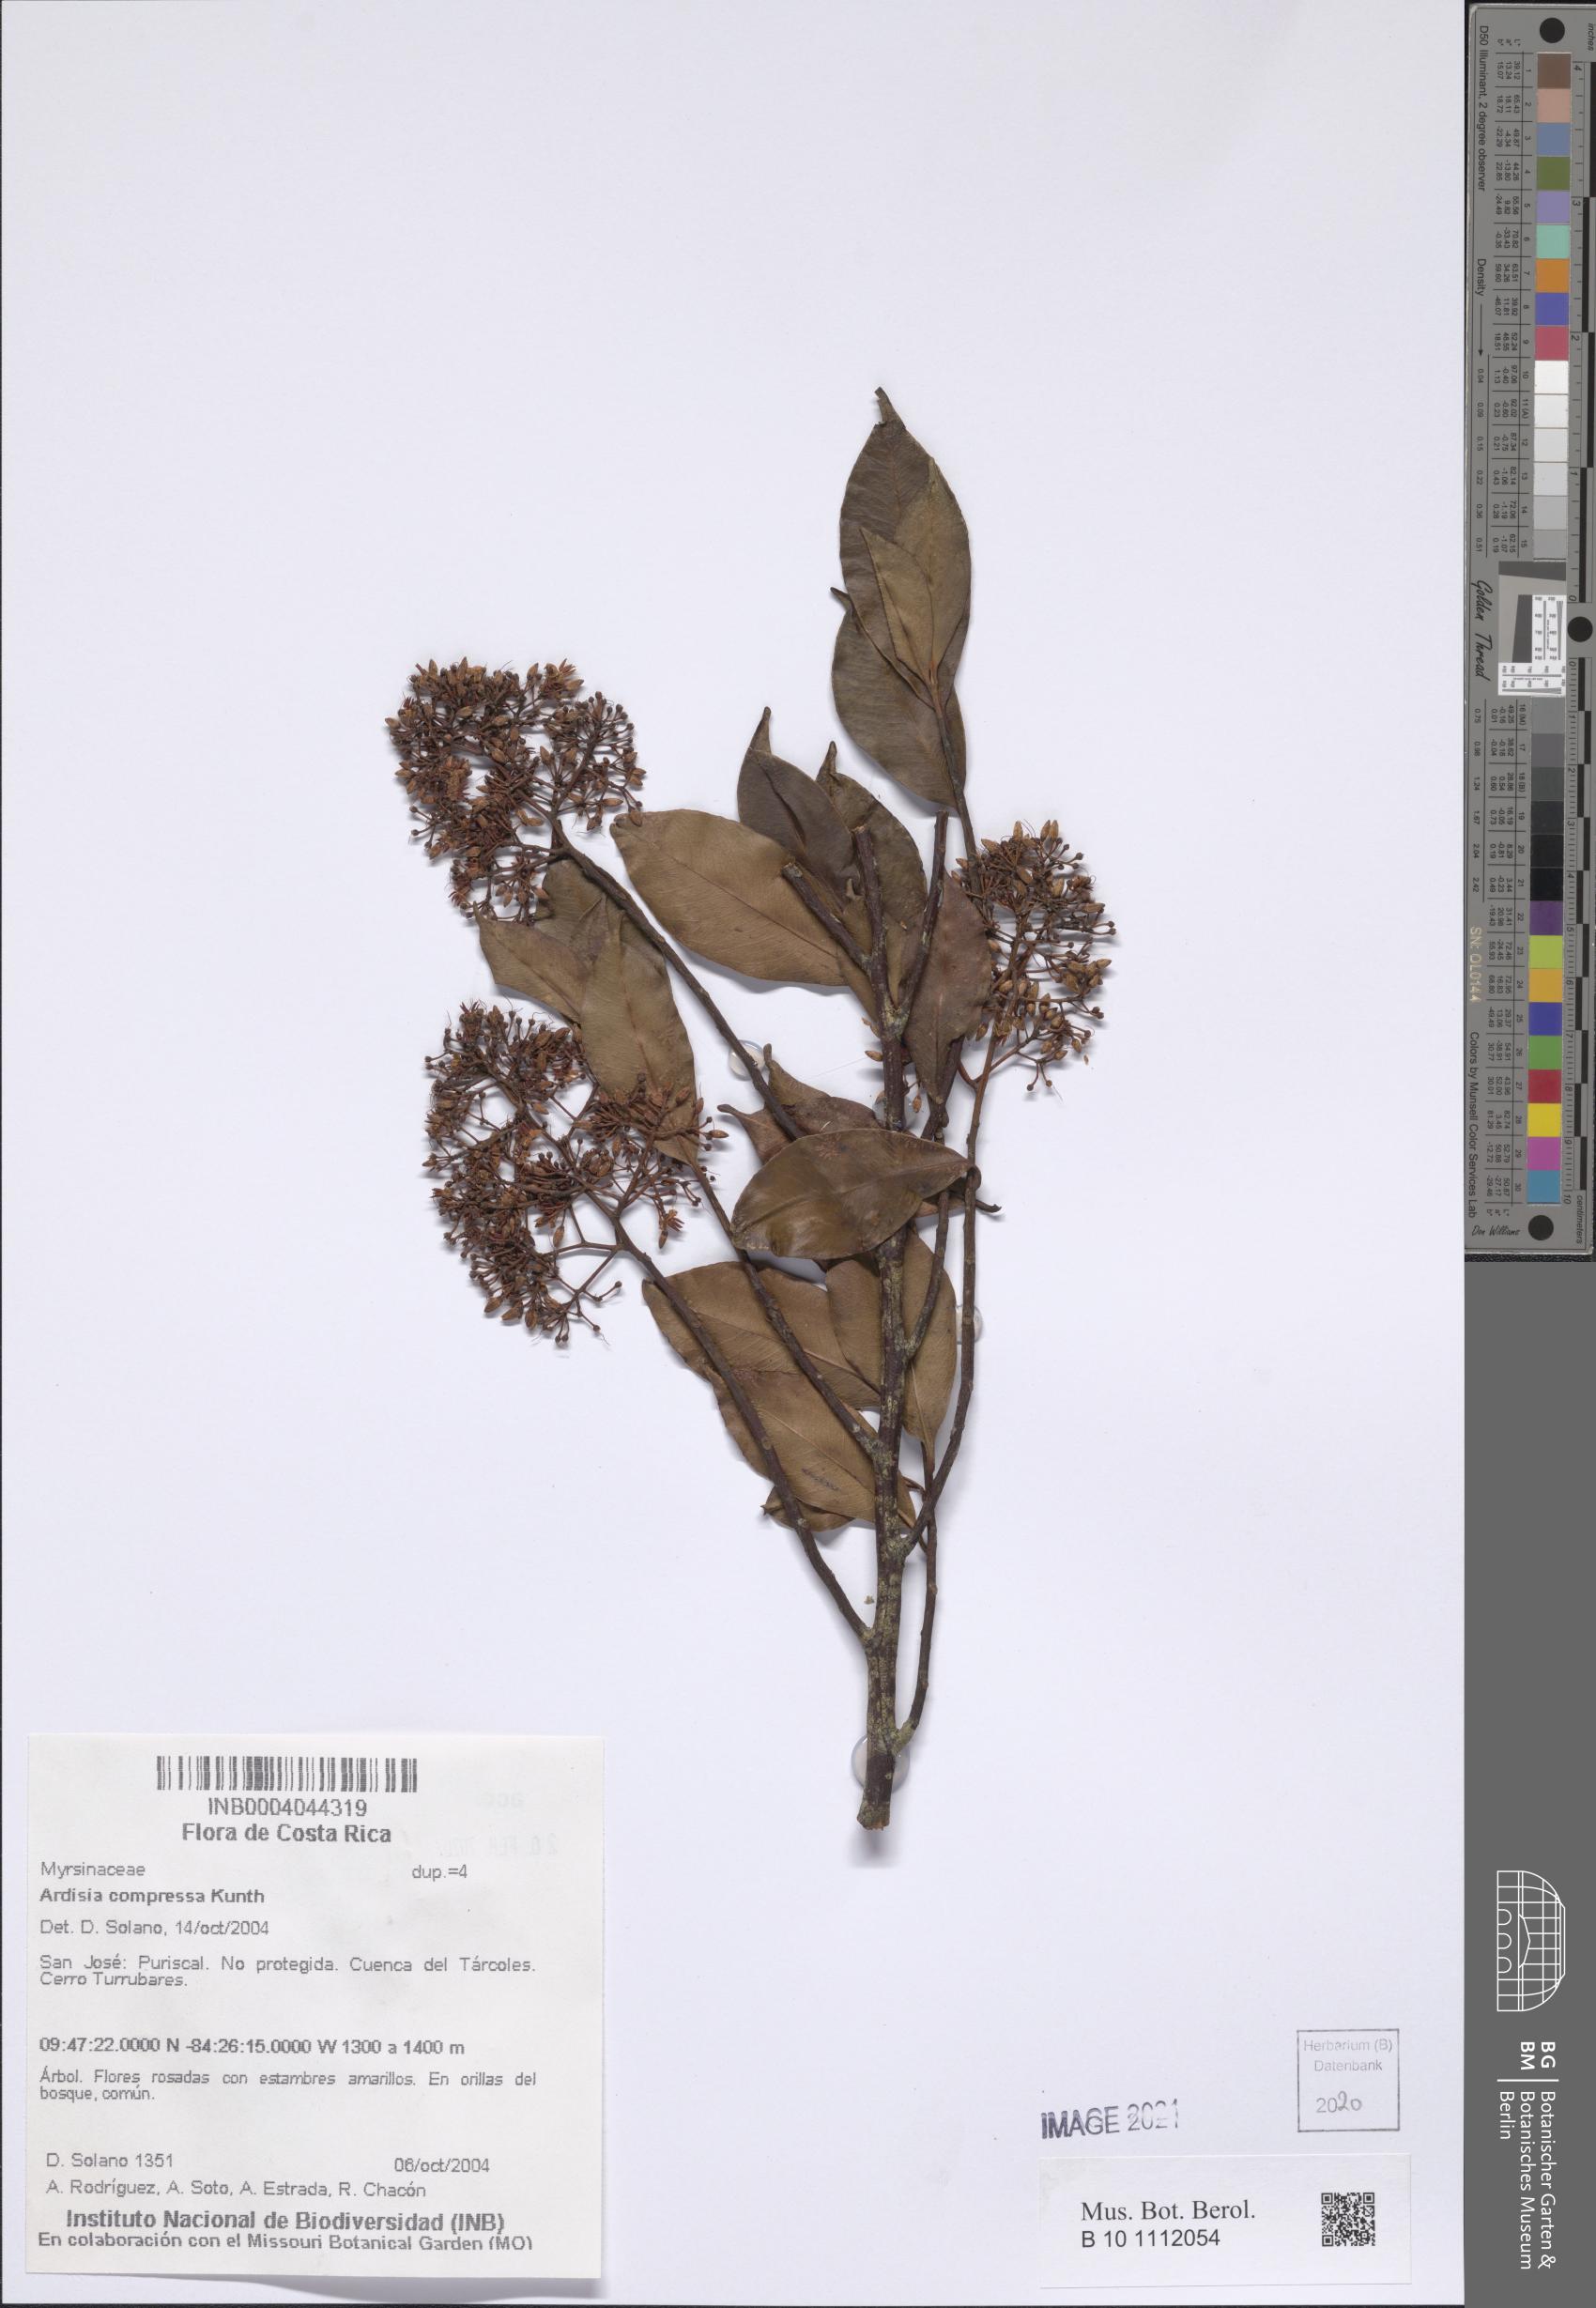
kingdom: Plantae
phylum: Tracheophyta
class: Magnoliopsida
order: Ericales
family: Primulaceae
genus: Ardisia
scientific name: Ardisia compressa
